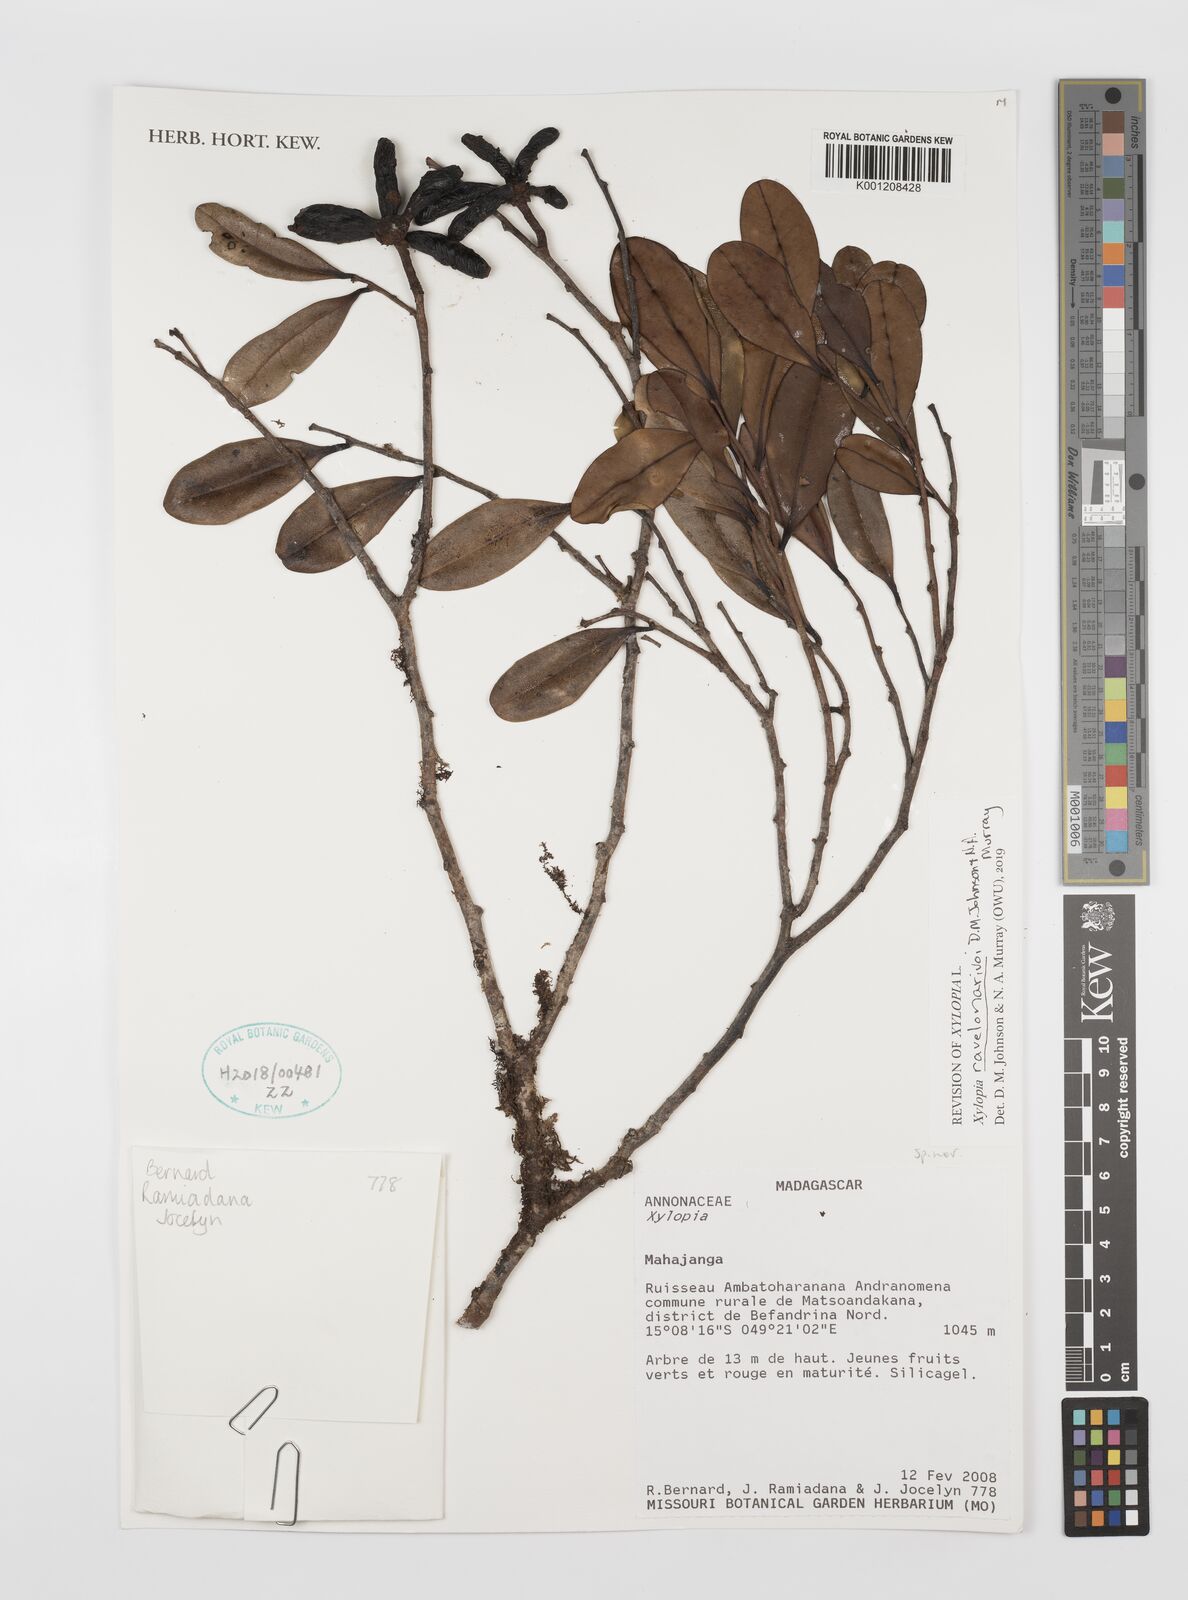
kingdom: Plantae
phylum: Tracheophyta
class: Magnoliopsida
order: Magnoliales
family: Annonaceae
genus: Xylopia
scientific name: Xylopia
